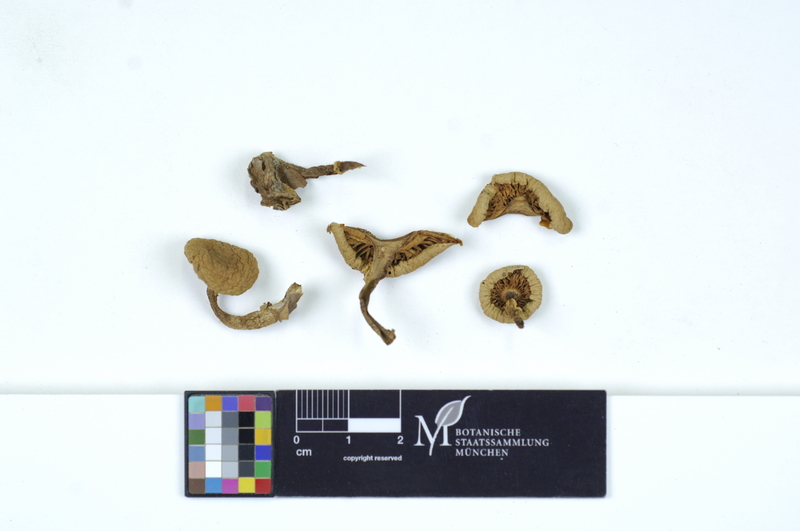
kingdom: Fungi
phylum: Basidiomycota
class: Agaricomycetes
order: Agaricales
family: Tricholomataceae
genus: Cystoderma
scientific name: Cystoderma carcharias
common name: Pearly powdercap
